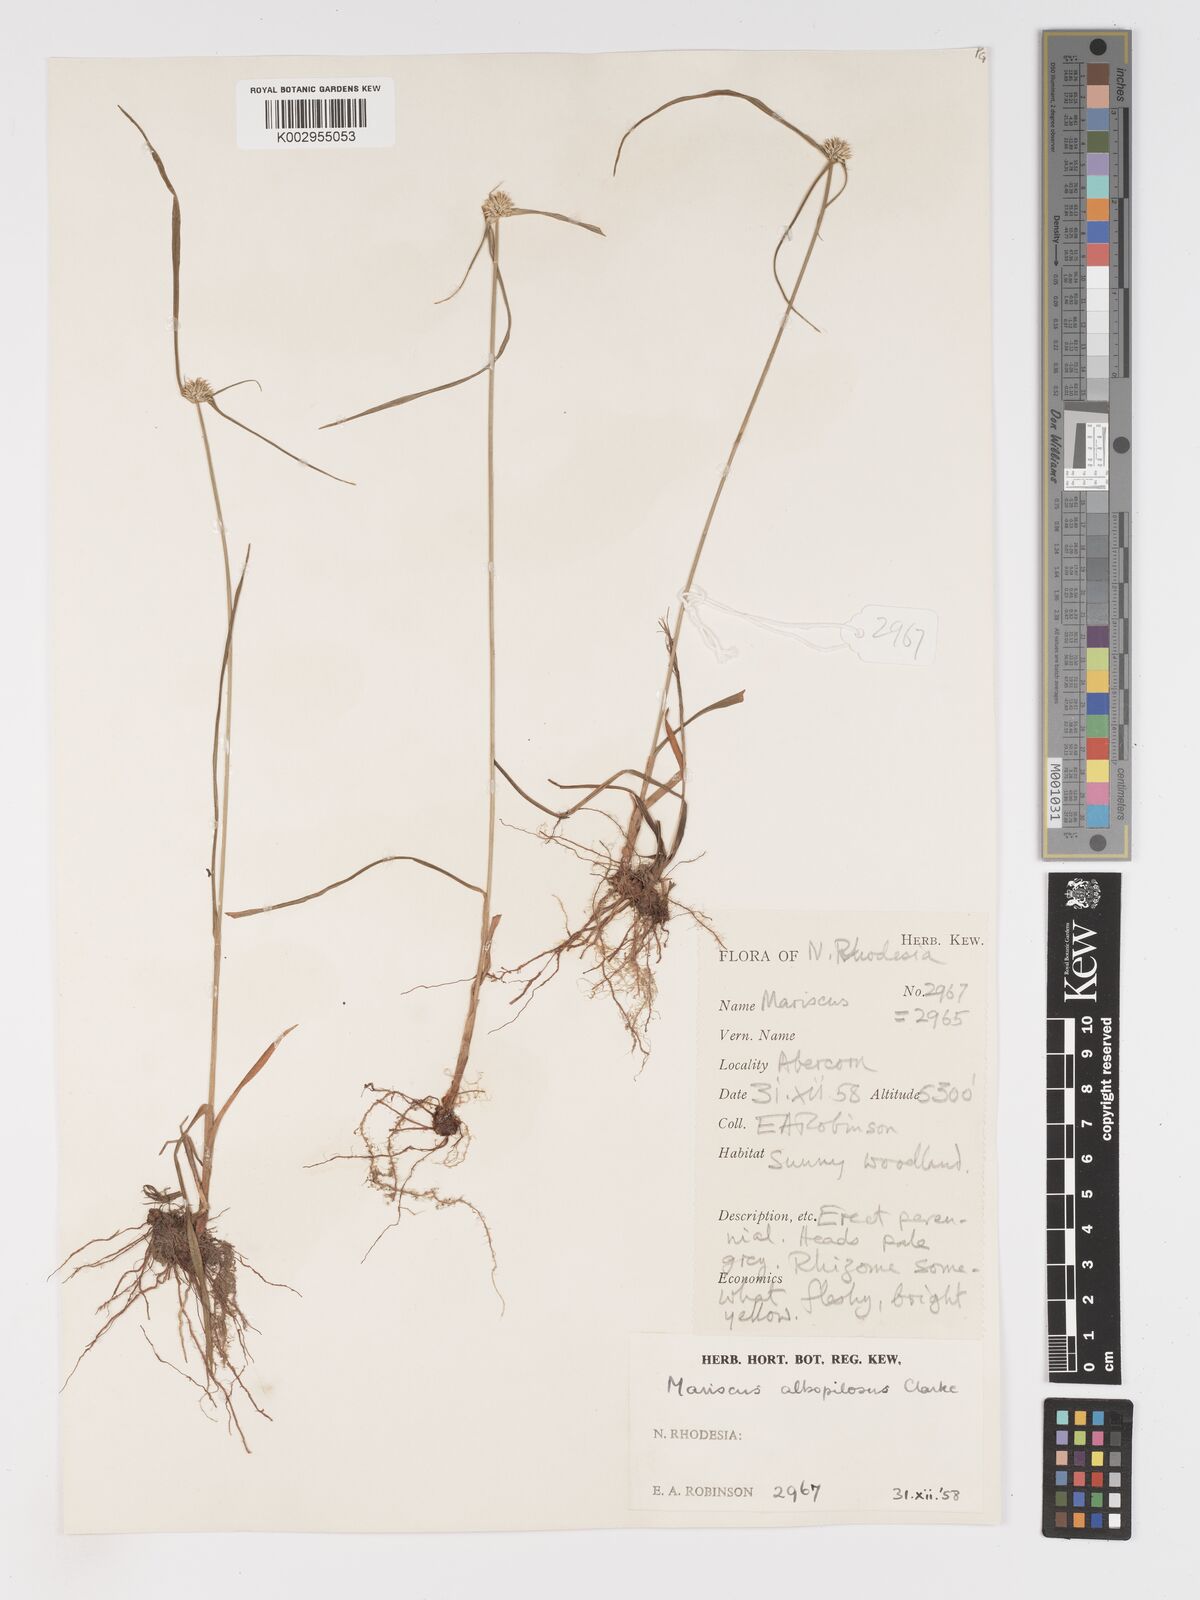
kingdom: Plantae
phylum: Tracheophyta
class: Liliopsida
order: Poales
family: Cyperaceae
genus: Cyperus
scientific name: Cyperus albopilosus
